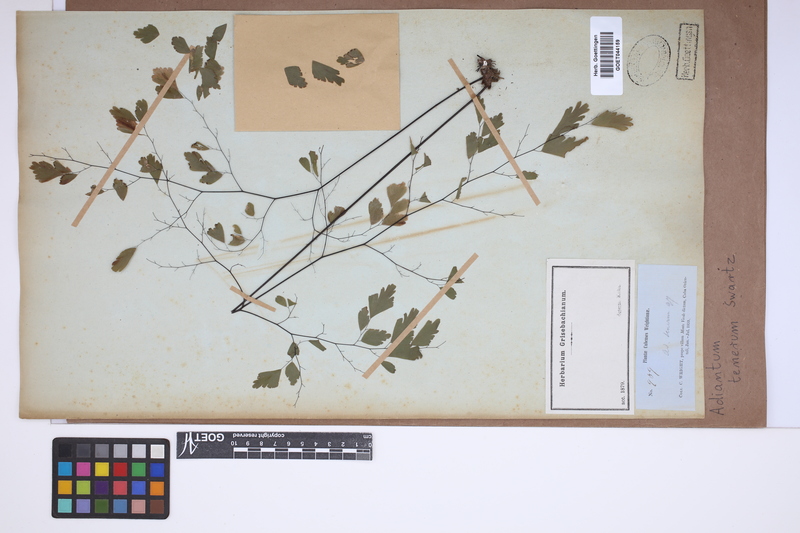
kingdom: Plantae
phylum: Tracheophyta
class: Polypodiopsida
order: Polypodiales
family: Pteridaceae
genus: Adiantum
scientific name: Adiantum tenerum
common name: Fan maidenhair
